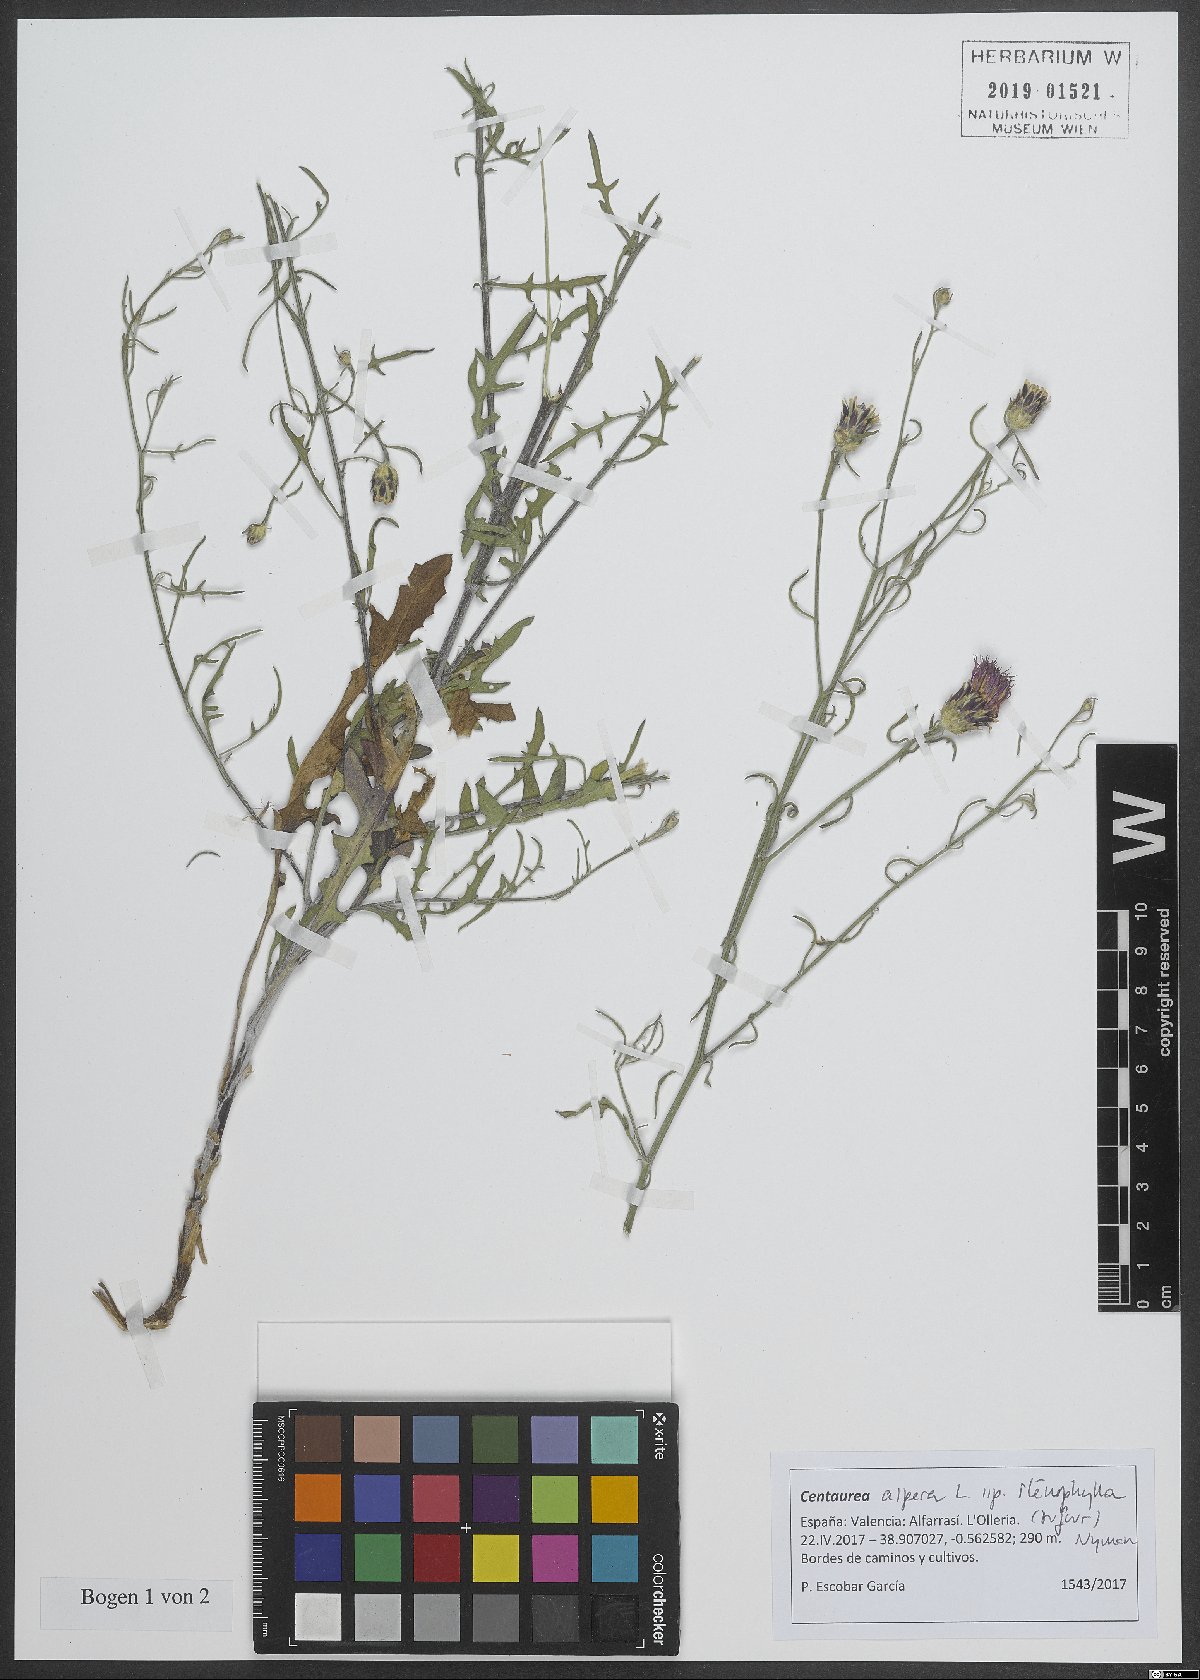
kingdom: Plantae
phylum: Tracheophyta
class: Magnoliopsida
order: Asterales
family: Asteraceae
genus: Centaurea
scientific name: Centaurea aspera
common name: Rough star-thistle
